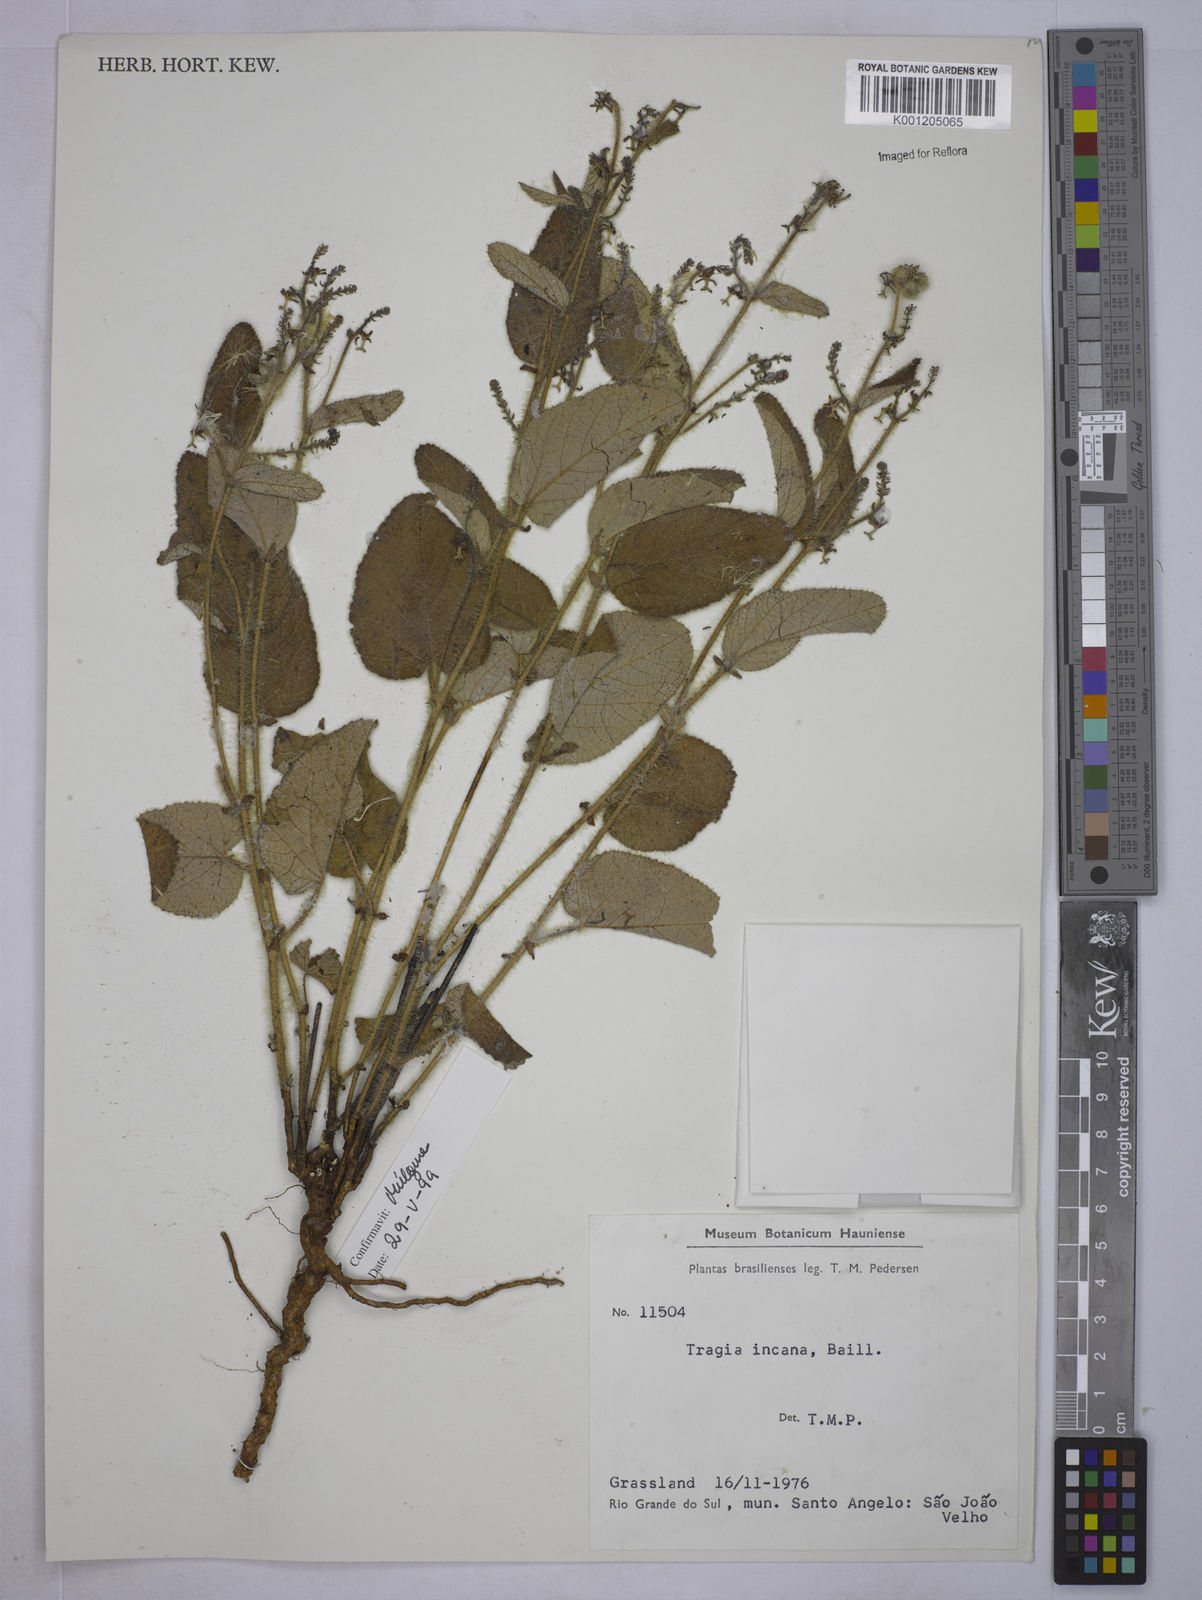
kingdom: Plantae
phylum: Tracheophyta
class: Magnoliopsida
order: Malpighiales
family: Euphorbiaceae
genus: Tragia
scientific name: Tragia
